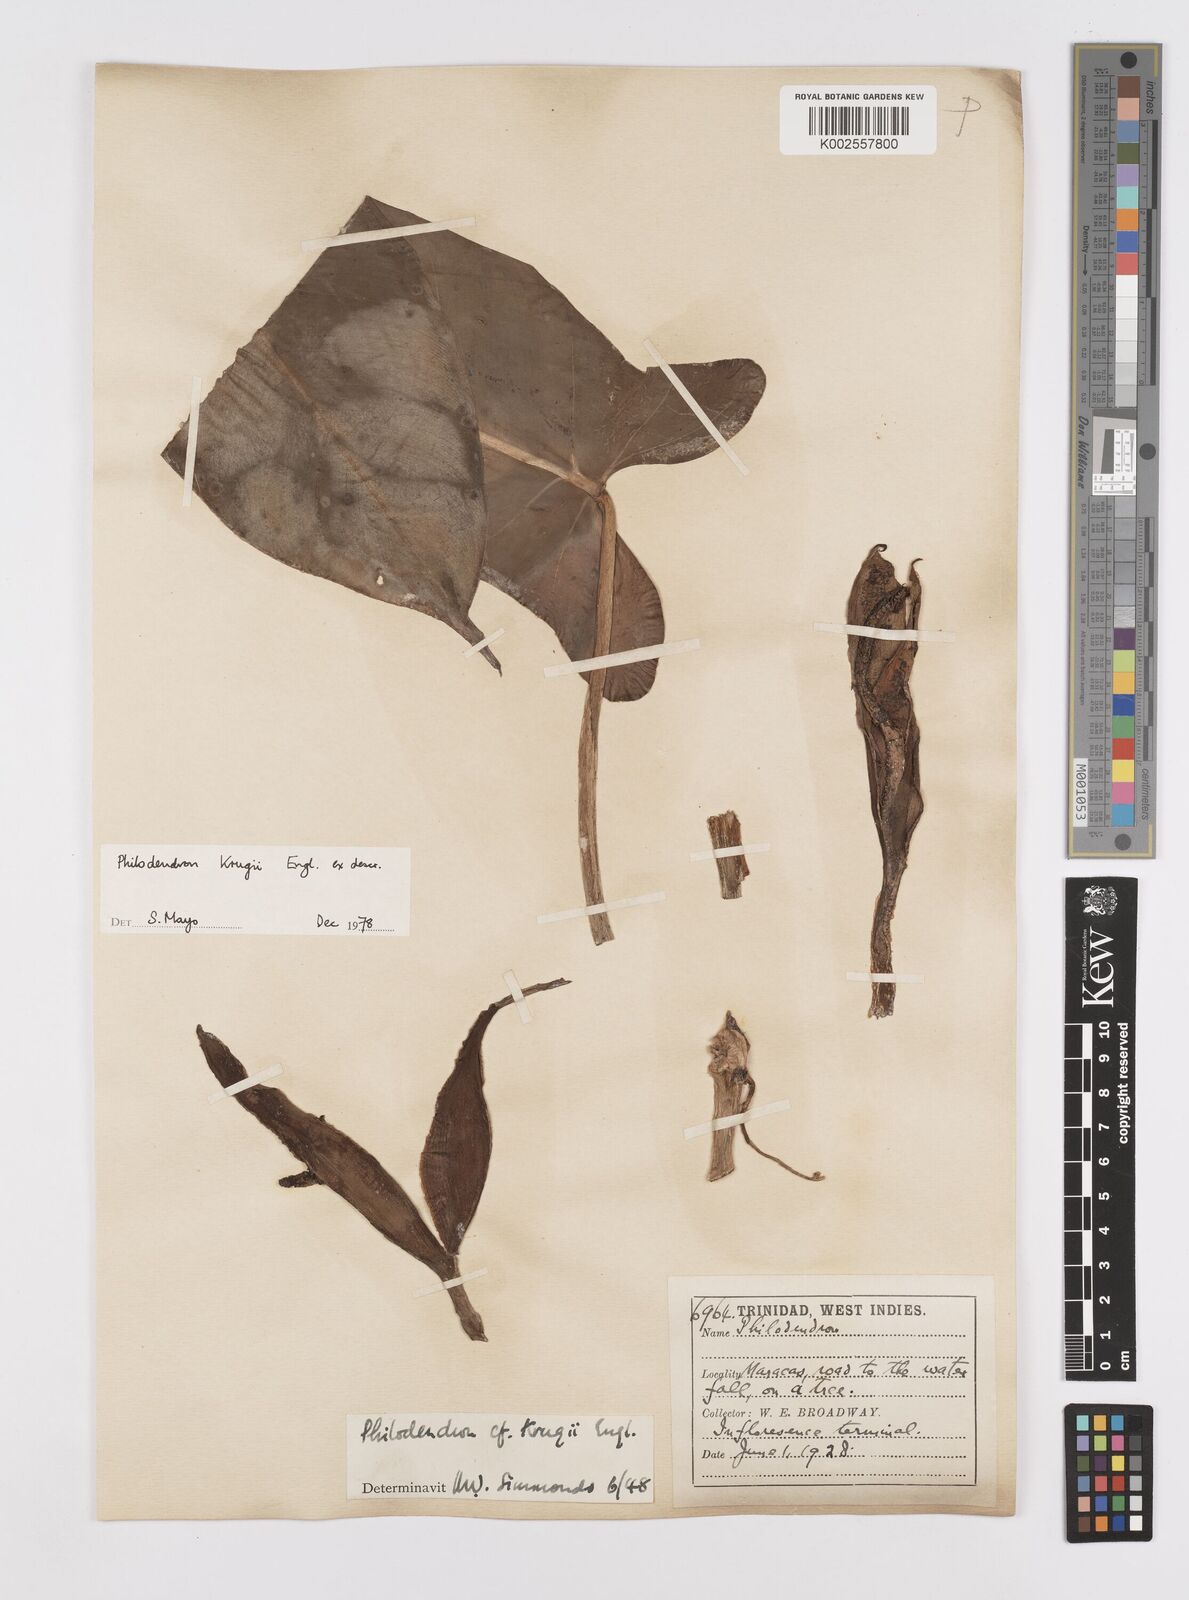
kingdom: Plantae
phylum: Tracheophyta
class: Liliopsida
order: Alismatales
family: Araceae
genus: Philodendron
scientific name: Philodendron krugii
